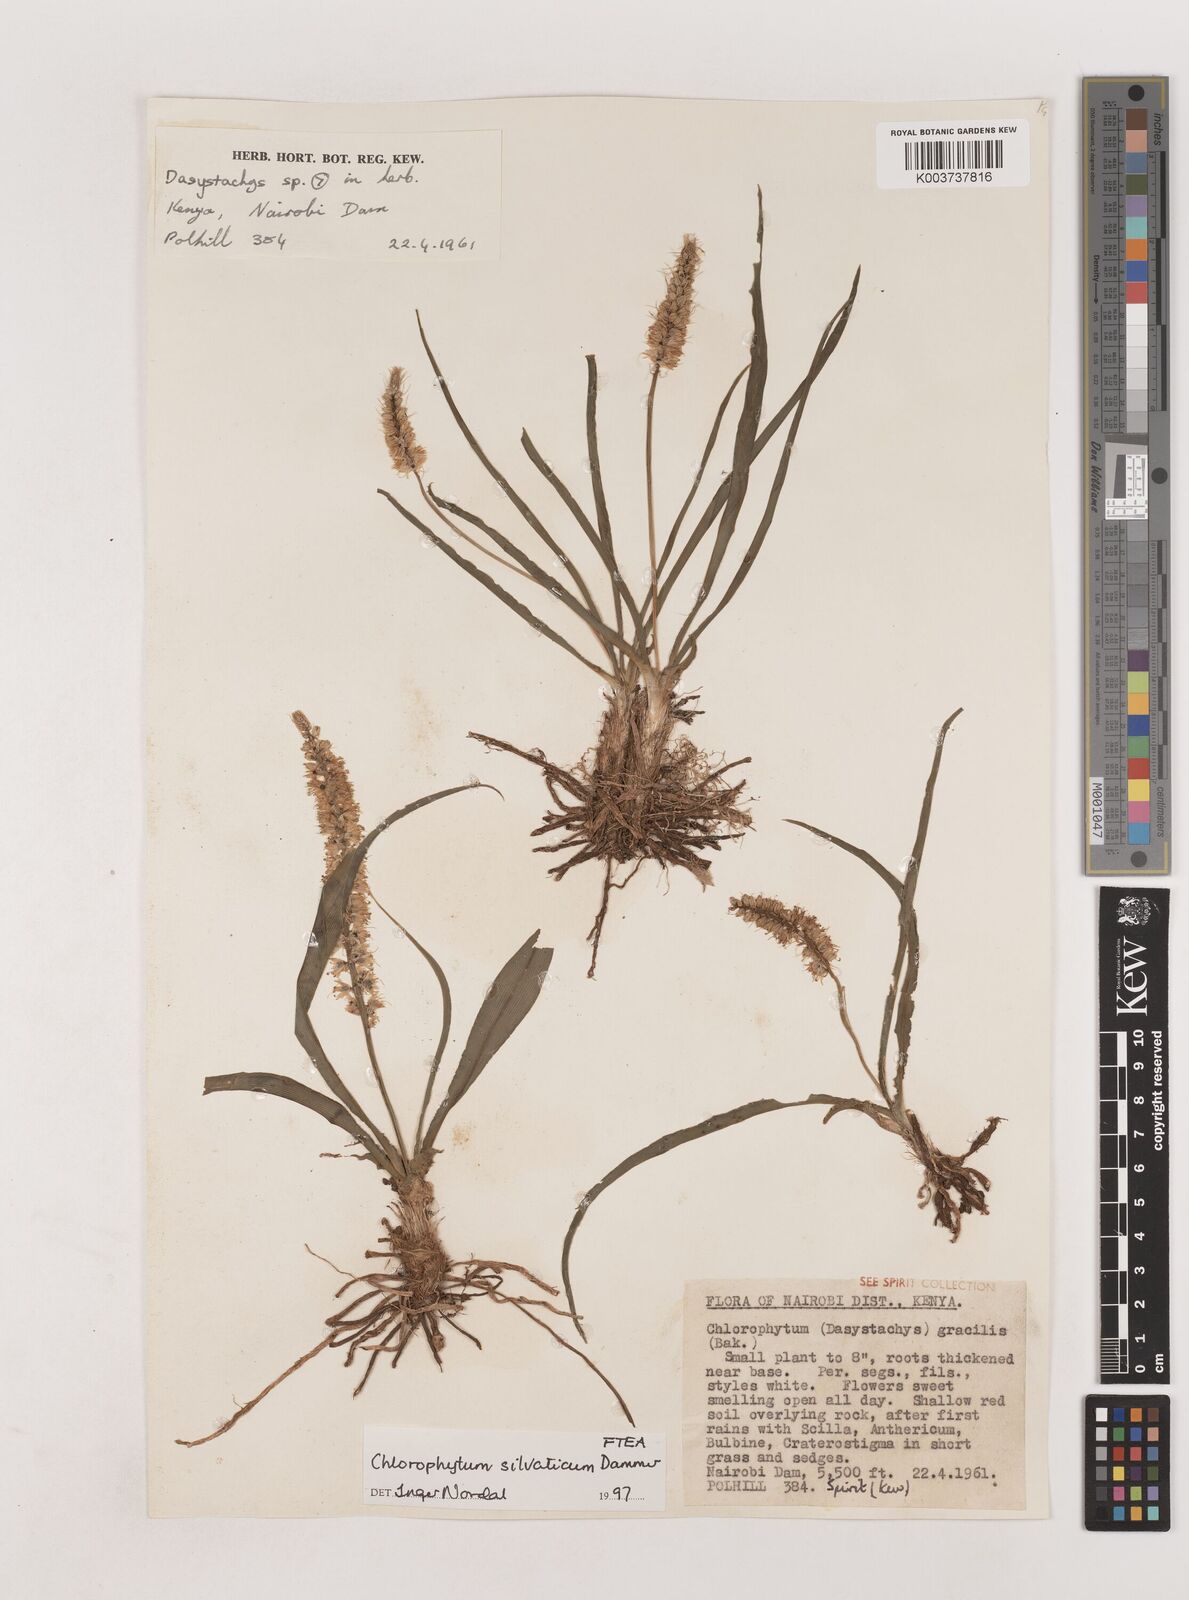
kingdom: Plantae
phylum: Tracheophyta
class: Liliopsida
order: Asparagales
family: Asparagaceae
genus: Chlorophytum
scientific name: Chlorophytum africanum
